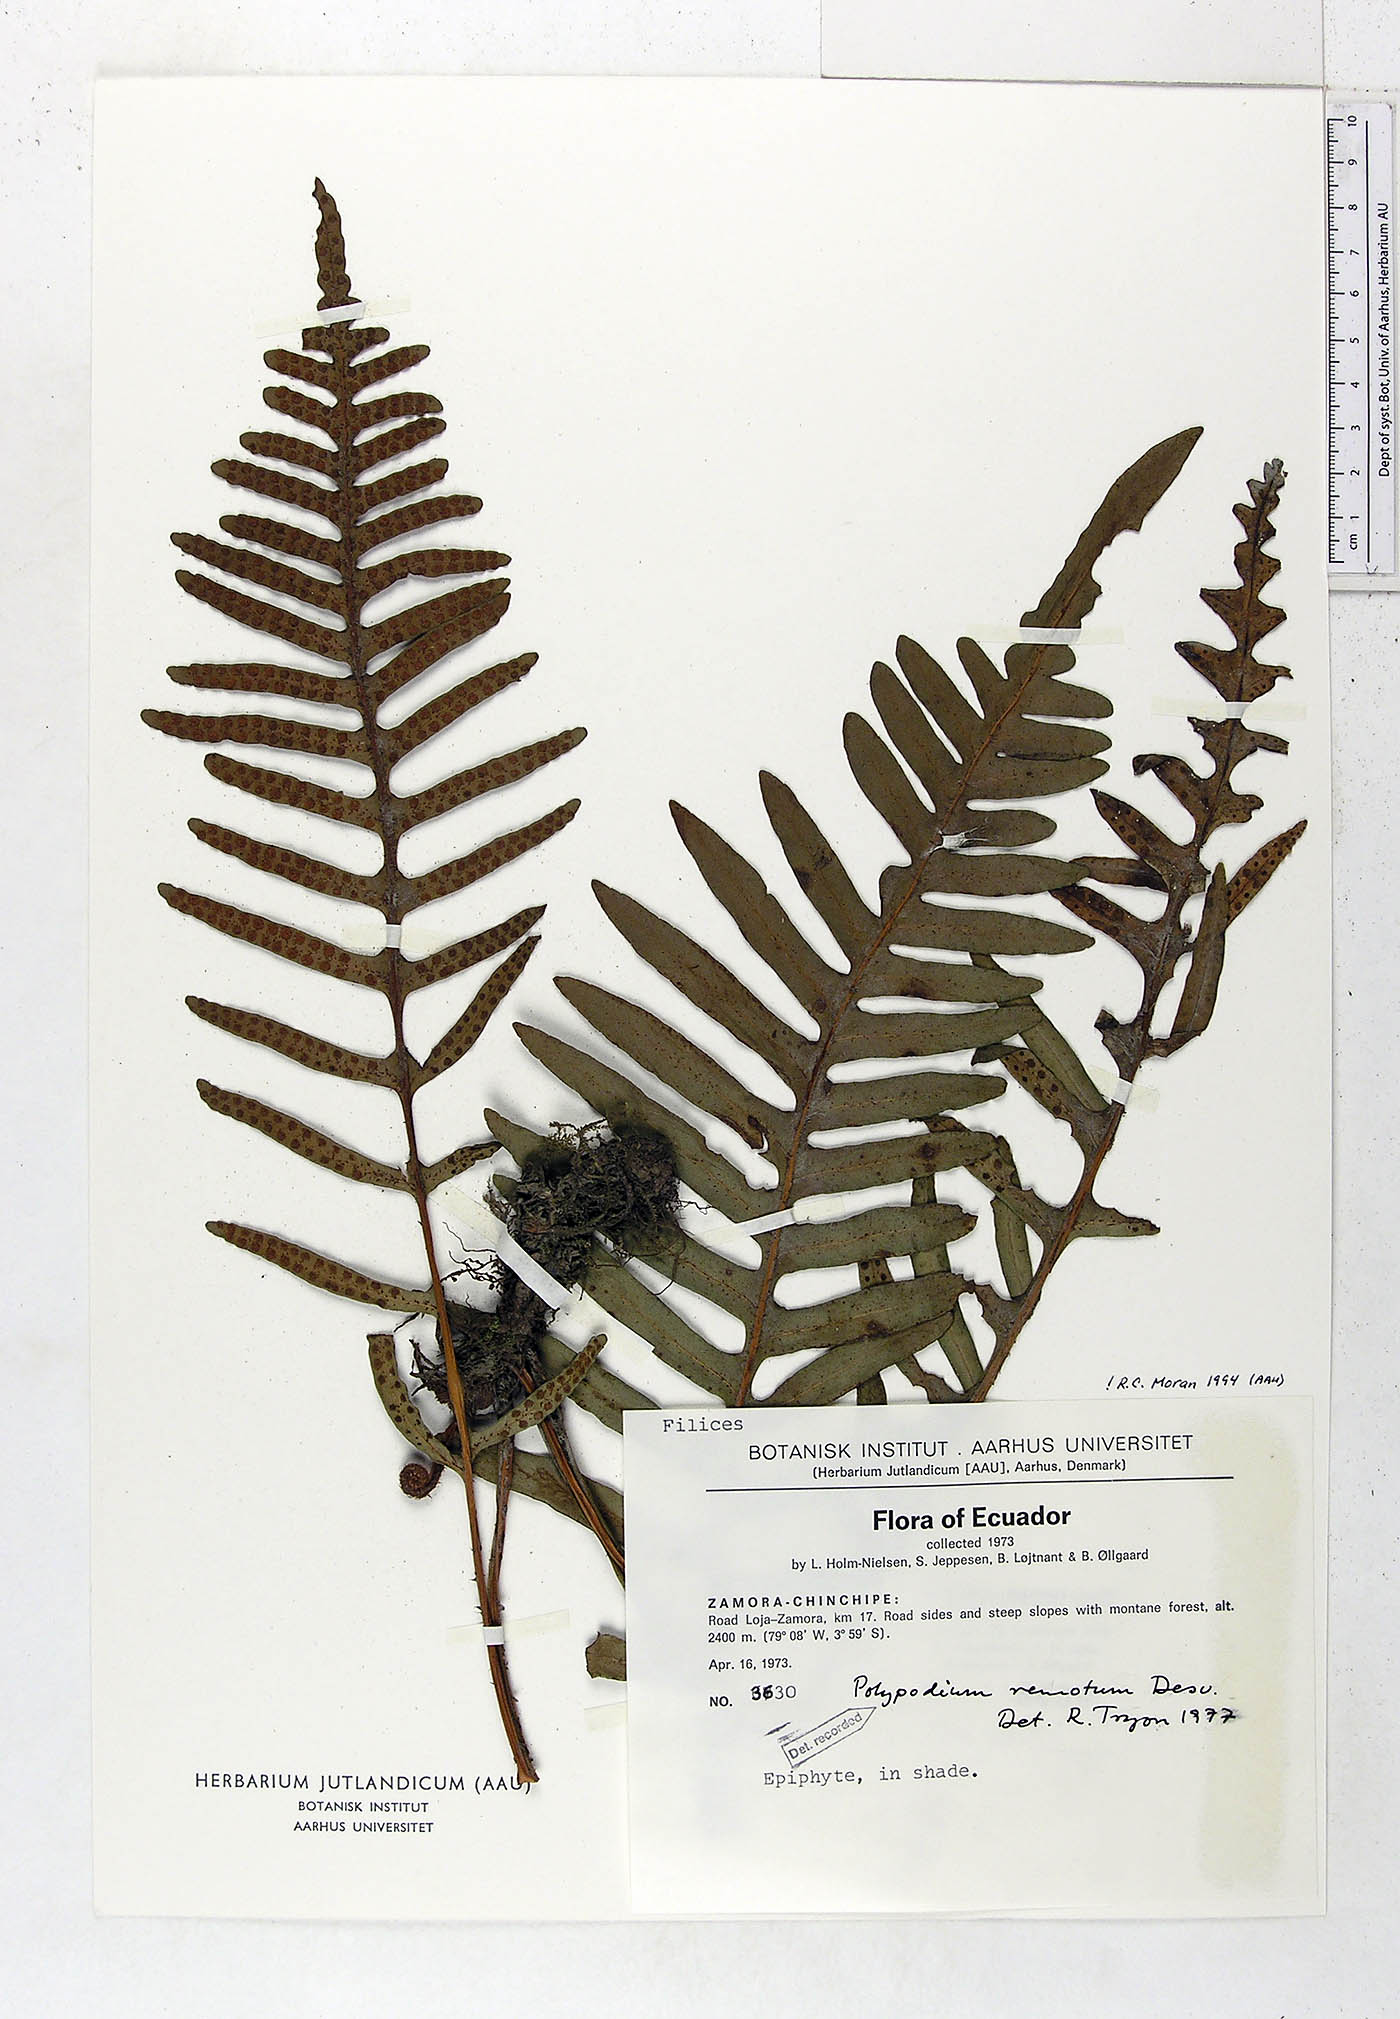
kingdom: Plantae
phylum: Tracheophyta
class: Polypodiopsida
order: Polypodiales
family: Polypodiaceae
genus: Pleopeltis
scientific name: Pleopeltis remota
